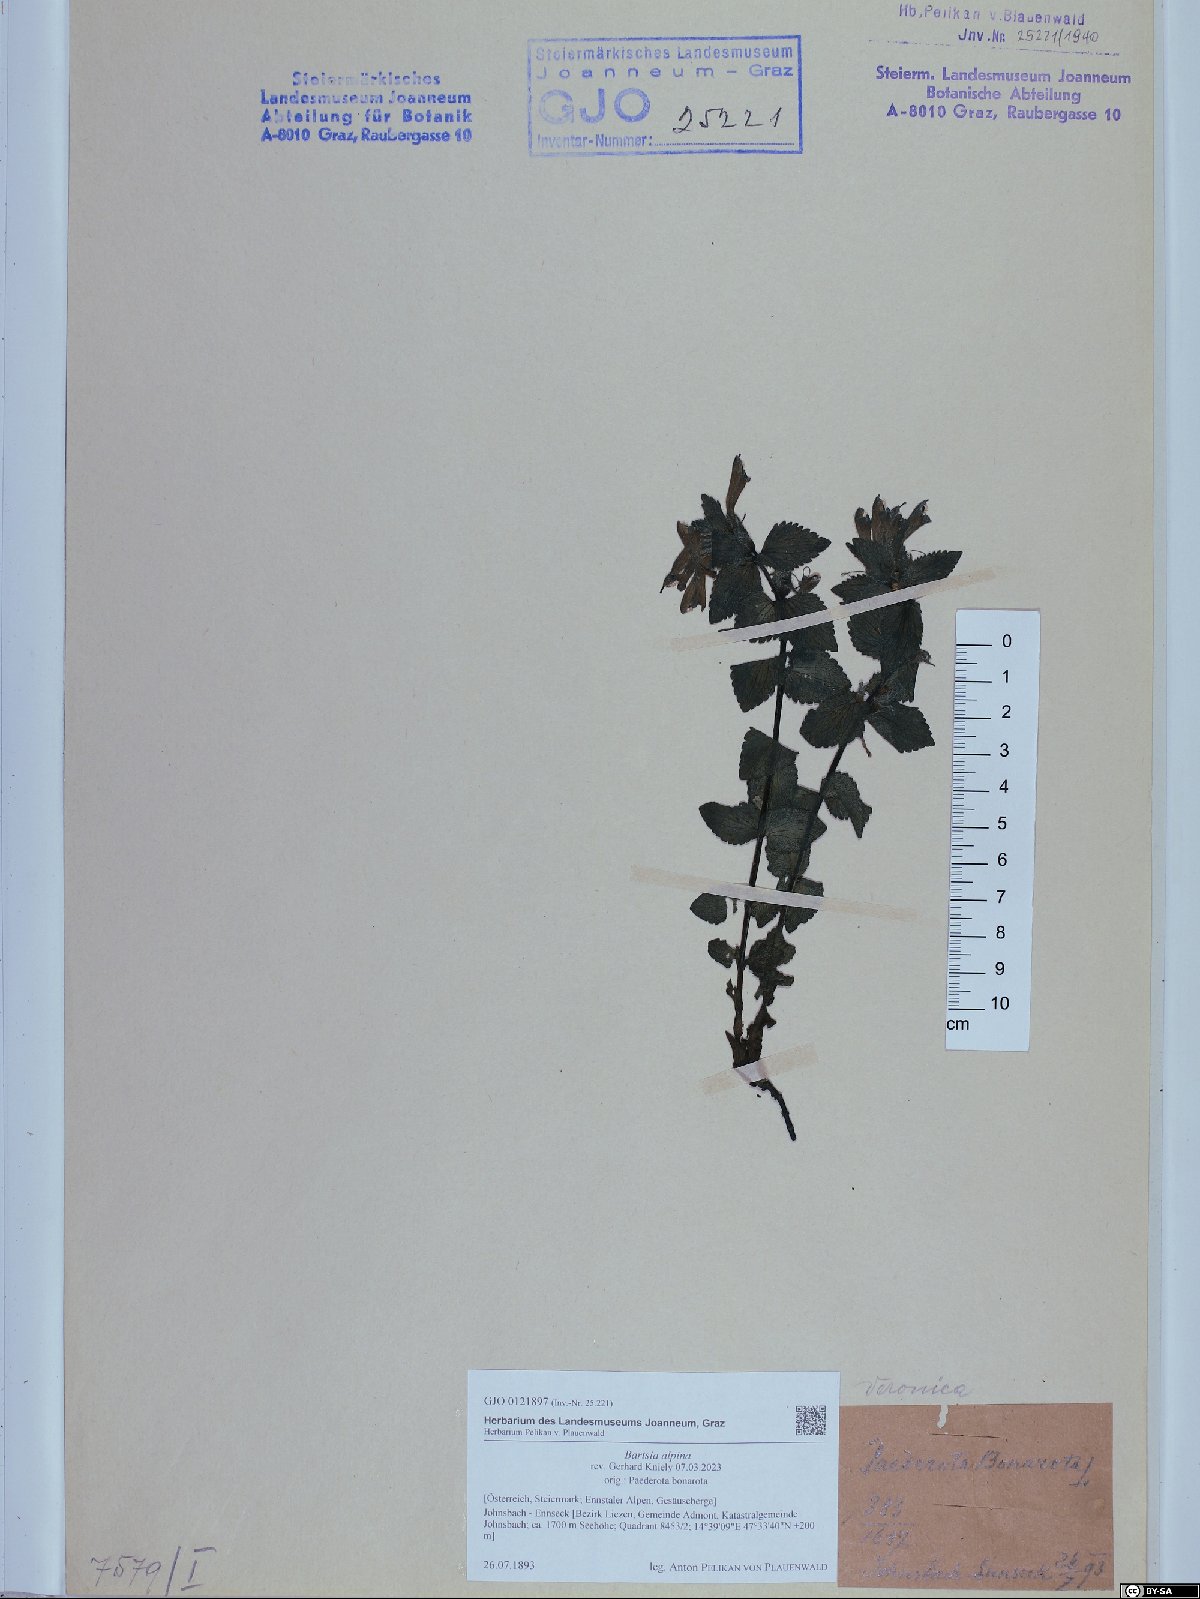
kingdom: Plantae
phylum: Tracheophyta
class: Magnoliopsida
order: Lamiales
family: Orobanchaceae
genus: Bartsia
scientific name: Bartsia alpina
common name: Alpine bartsia
